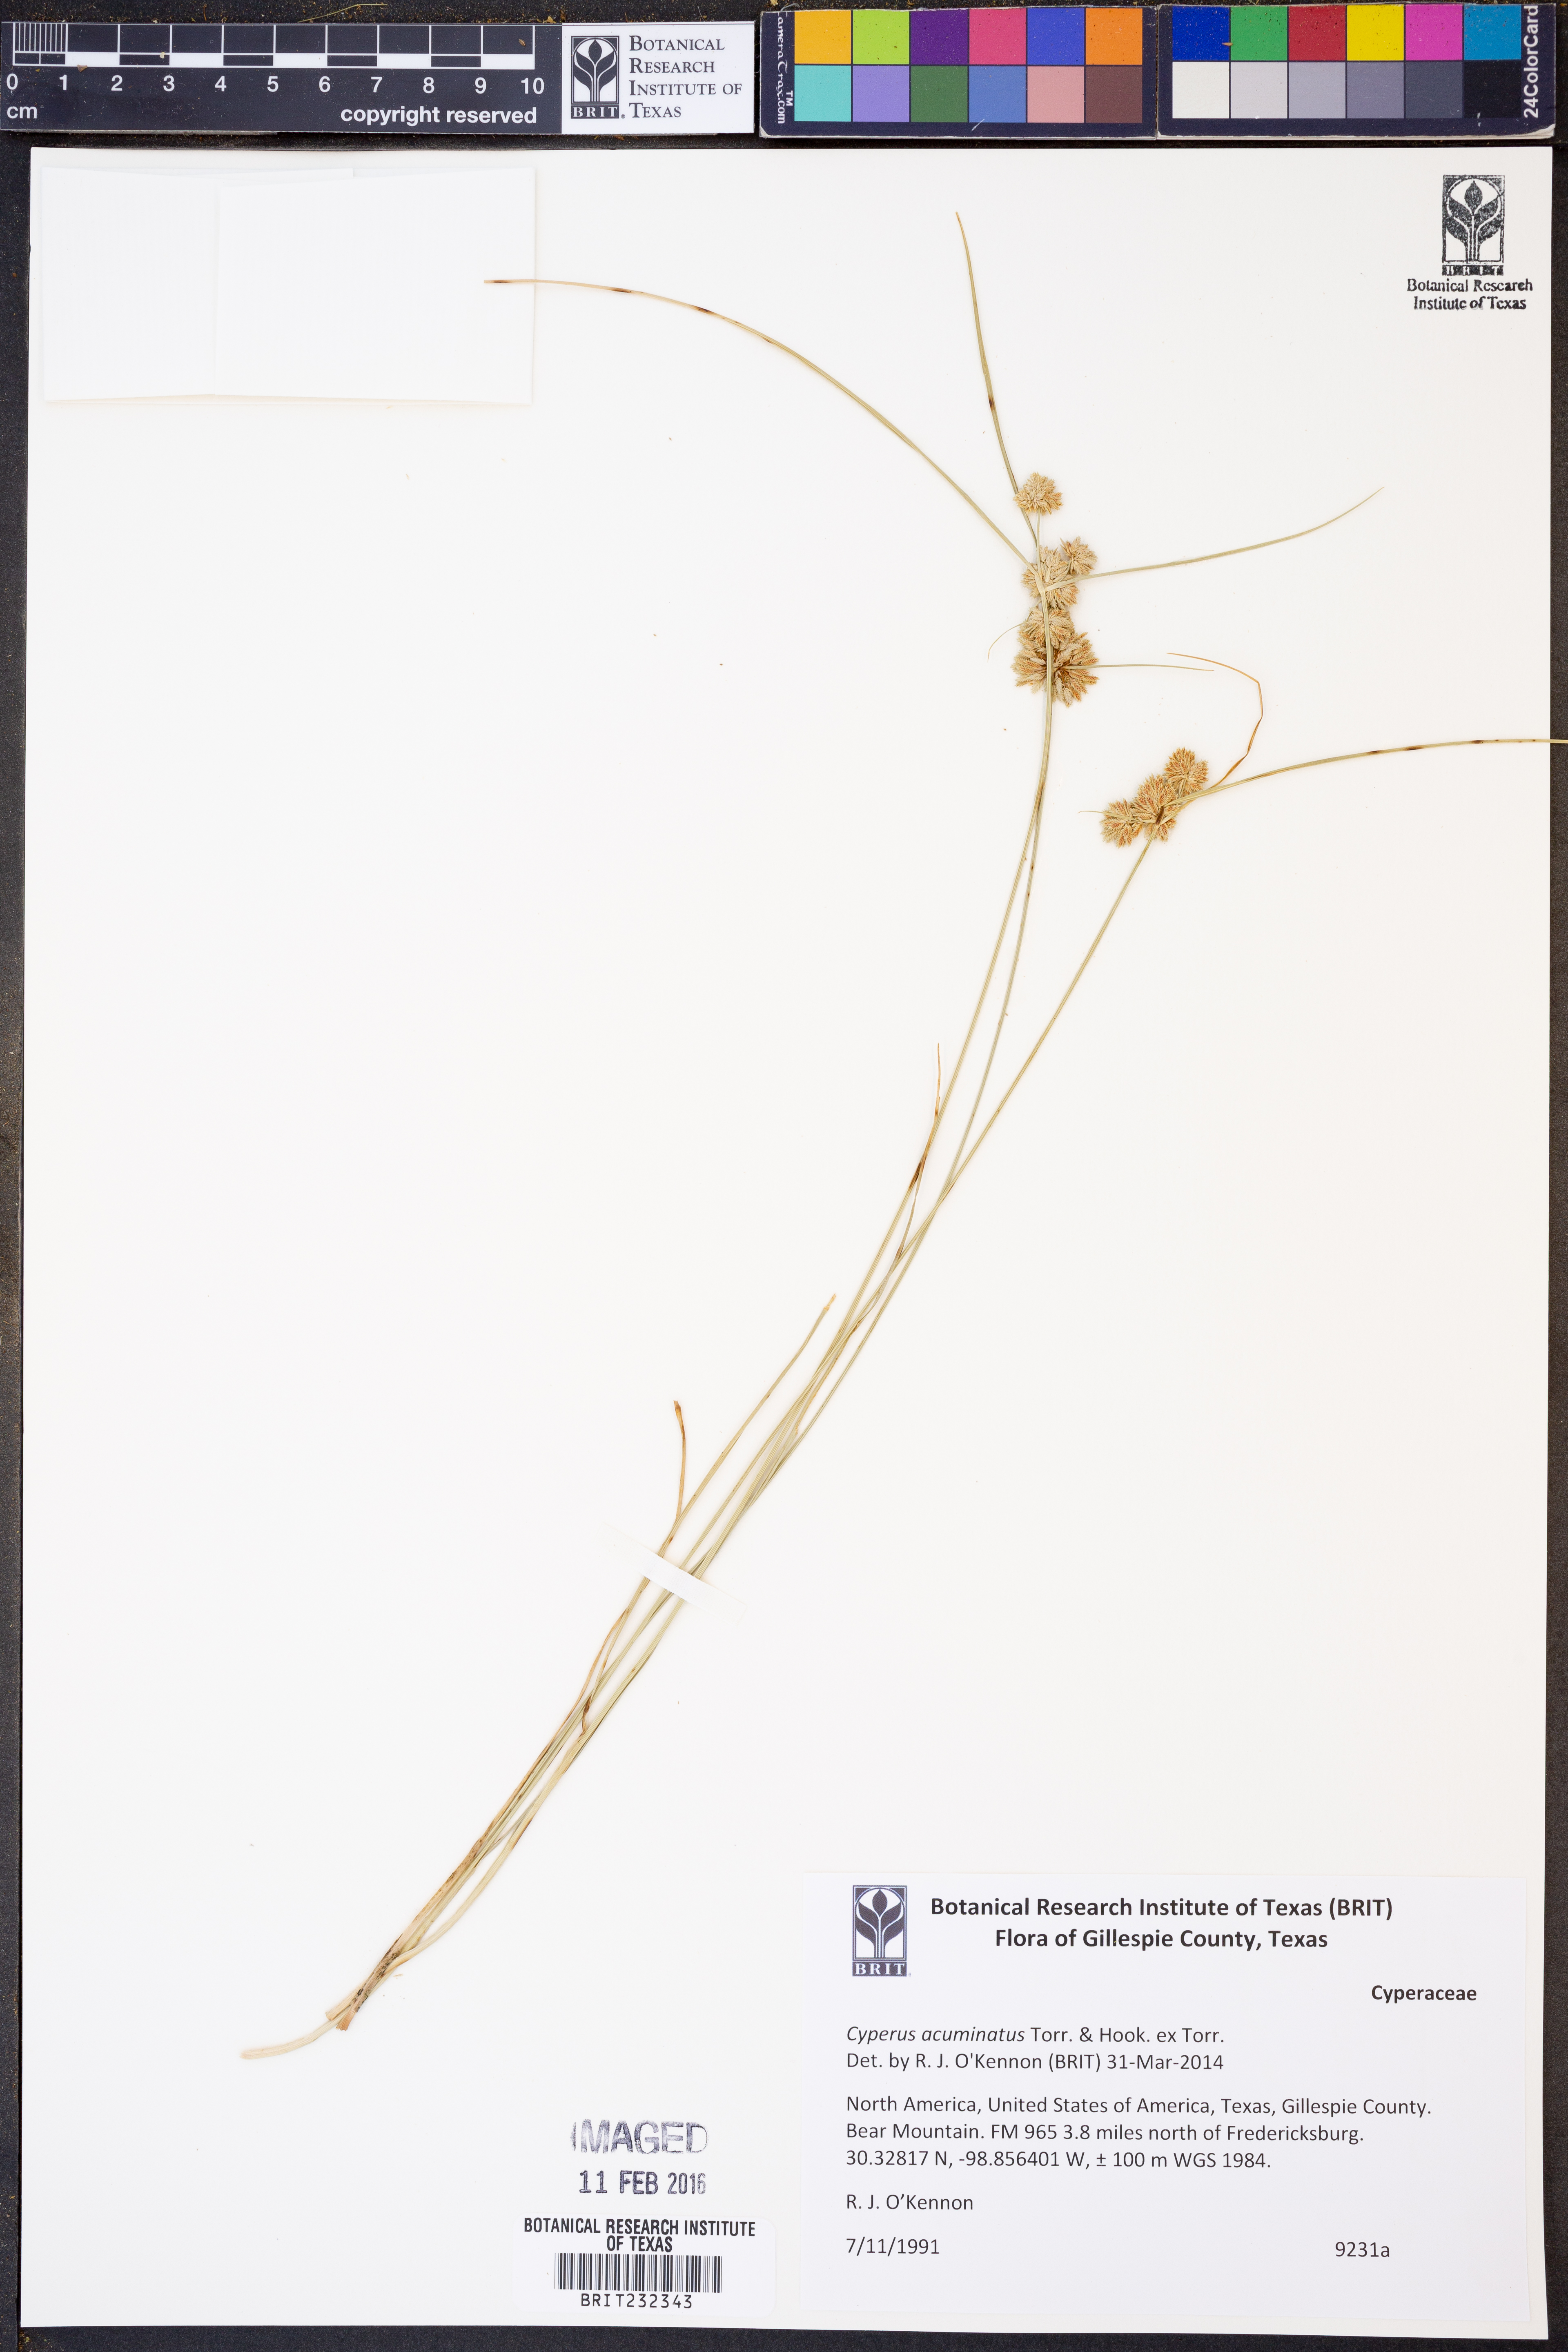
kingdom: Plantae
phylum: Tracheophyta
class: Liliopsida
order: Poales
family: Cyperaceae
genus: Cyperus
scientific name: Cyperus acuminatus
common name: Short-pointed cyperus
